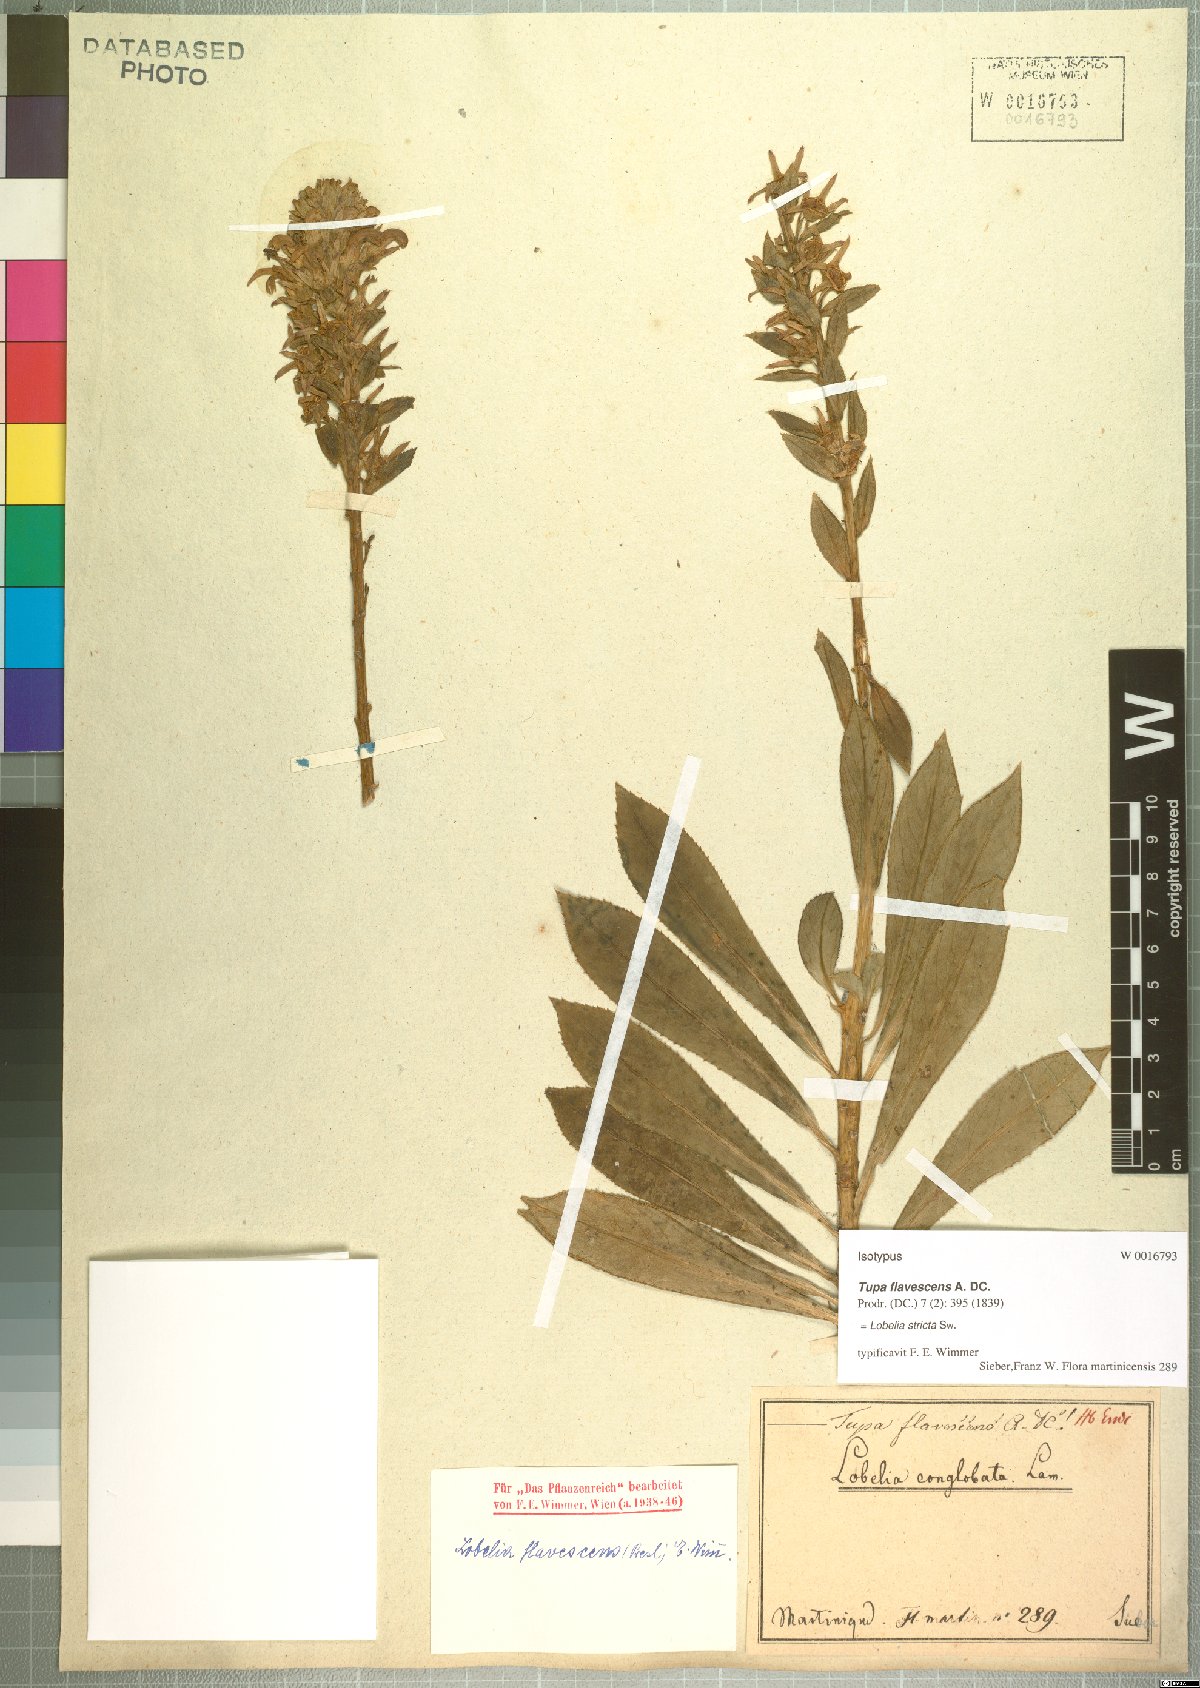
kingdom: Plantae
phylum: Tracheophyta
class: Magnoliopsida
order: Asterales
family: Campanulaceae
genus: Lobelia
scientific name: Lobelia stricta
